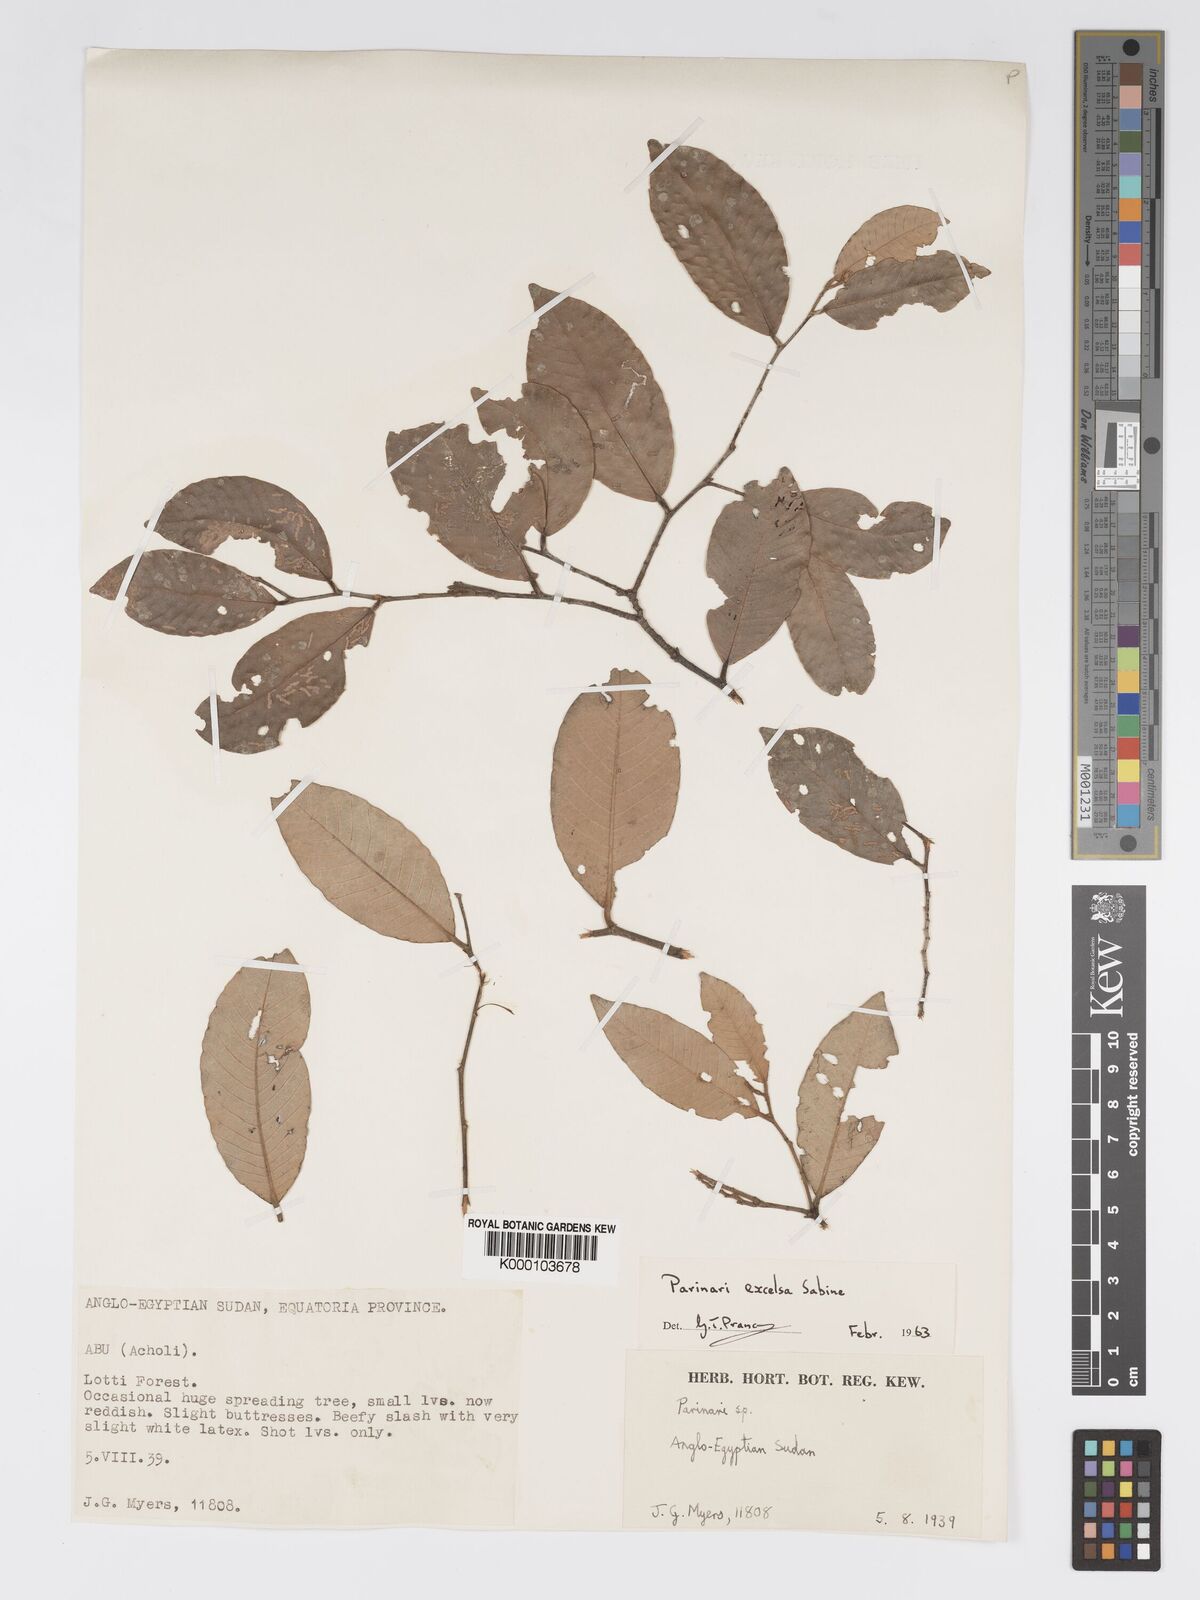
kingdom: Plantae
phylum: Tracheophyta
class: Magnoliopsida
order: Malpighiales
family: Chrysobalanaceae
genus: Parinari
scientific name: Parinari excelsa
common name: Guinea-plum
